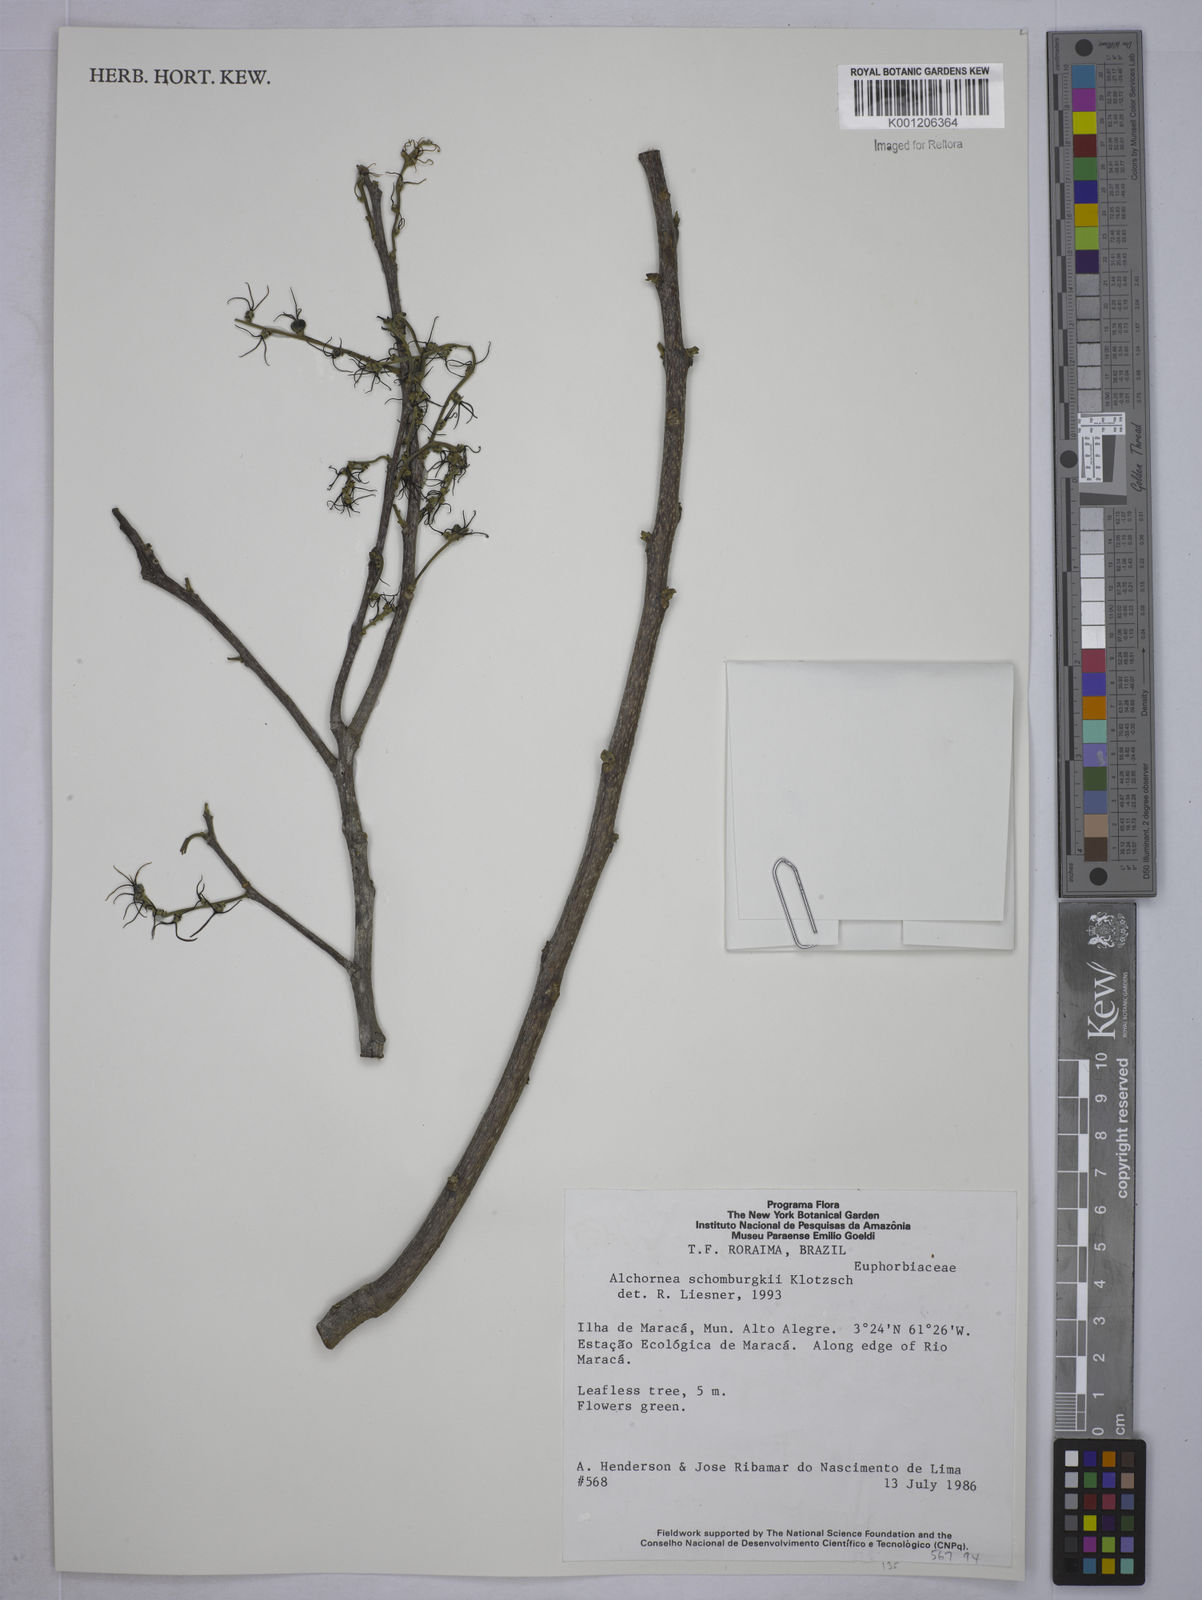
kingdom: Plantae
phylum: Tracheophyta
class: Magnoliopsida
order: Malpighiales
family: Euphorbiaceae
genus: Alchornea
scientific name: Alchornea discolor
